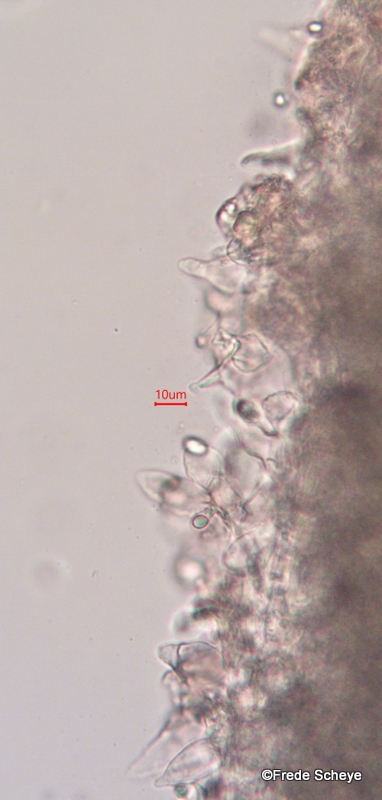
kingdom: Fungi
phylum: Basidiomycota
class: Agaricomycetes
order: Agaricales
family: Mycenaceae
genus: Mycena
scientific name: Mycena renati
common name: smuk huesvamp
